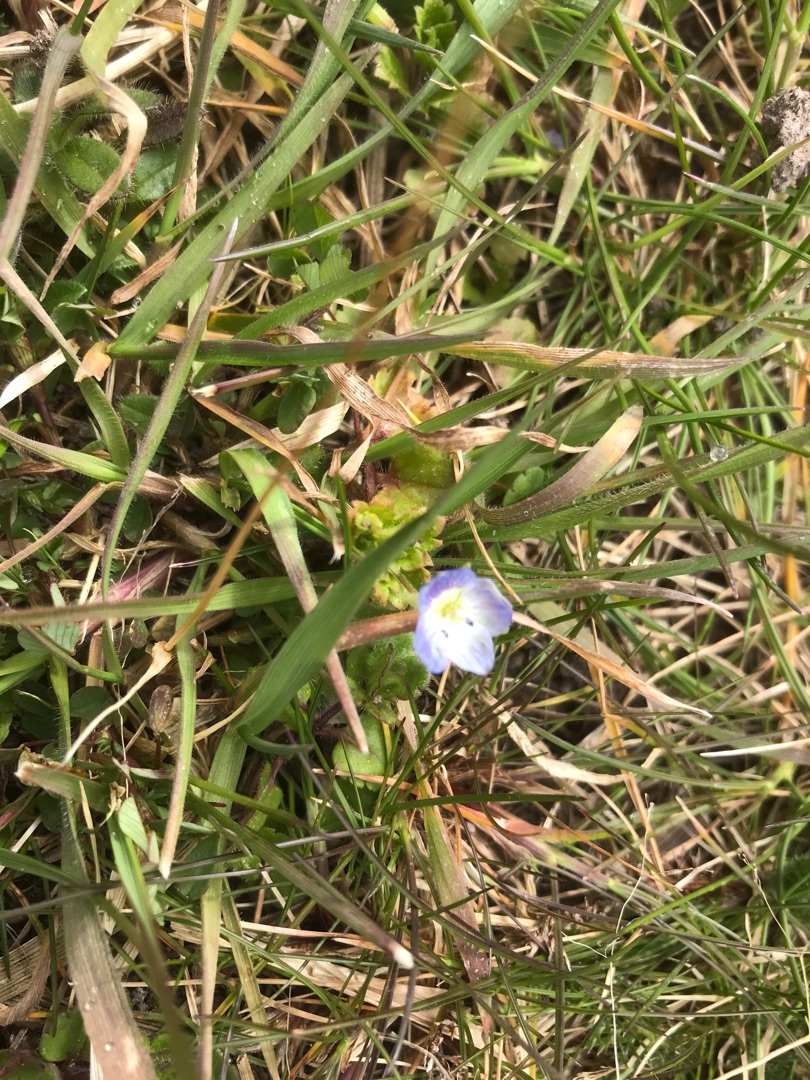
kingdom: Plantae
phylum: Tracheophyta
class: Magnoliopsida
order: Lamiales
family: Plantaginaceae
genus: Veronica
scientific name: Veronica persica
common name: Storkronet ærenpris
